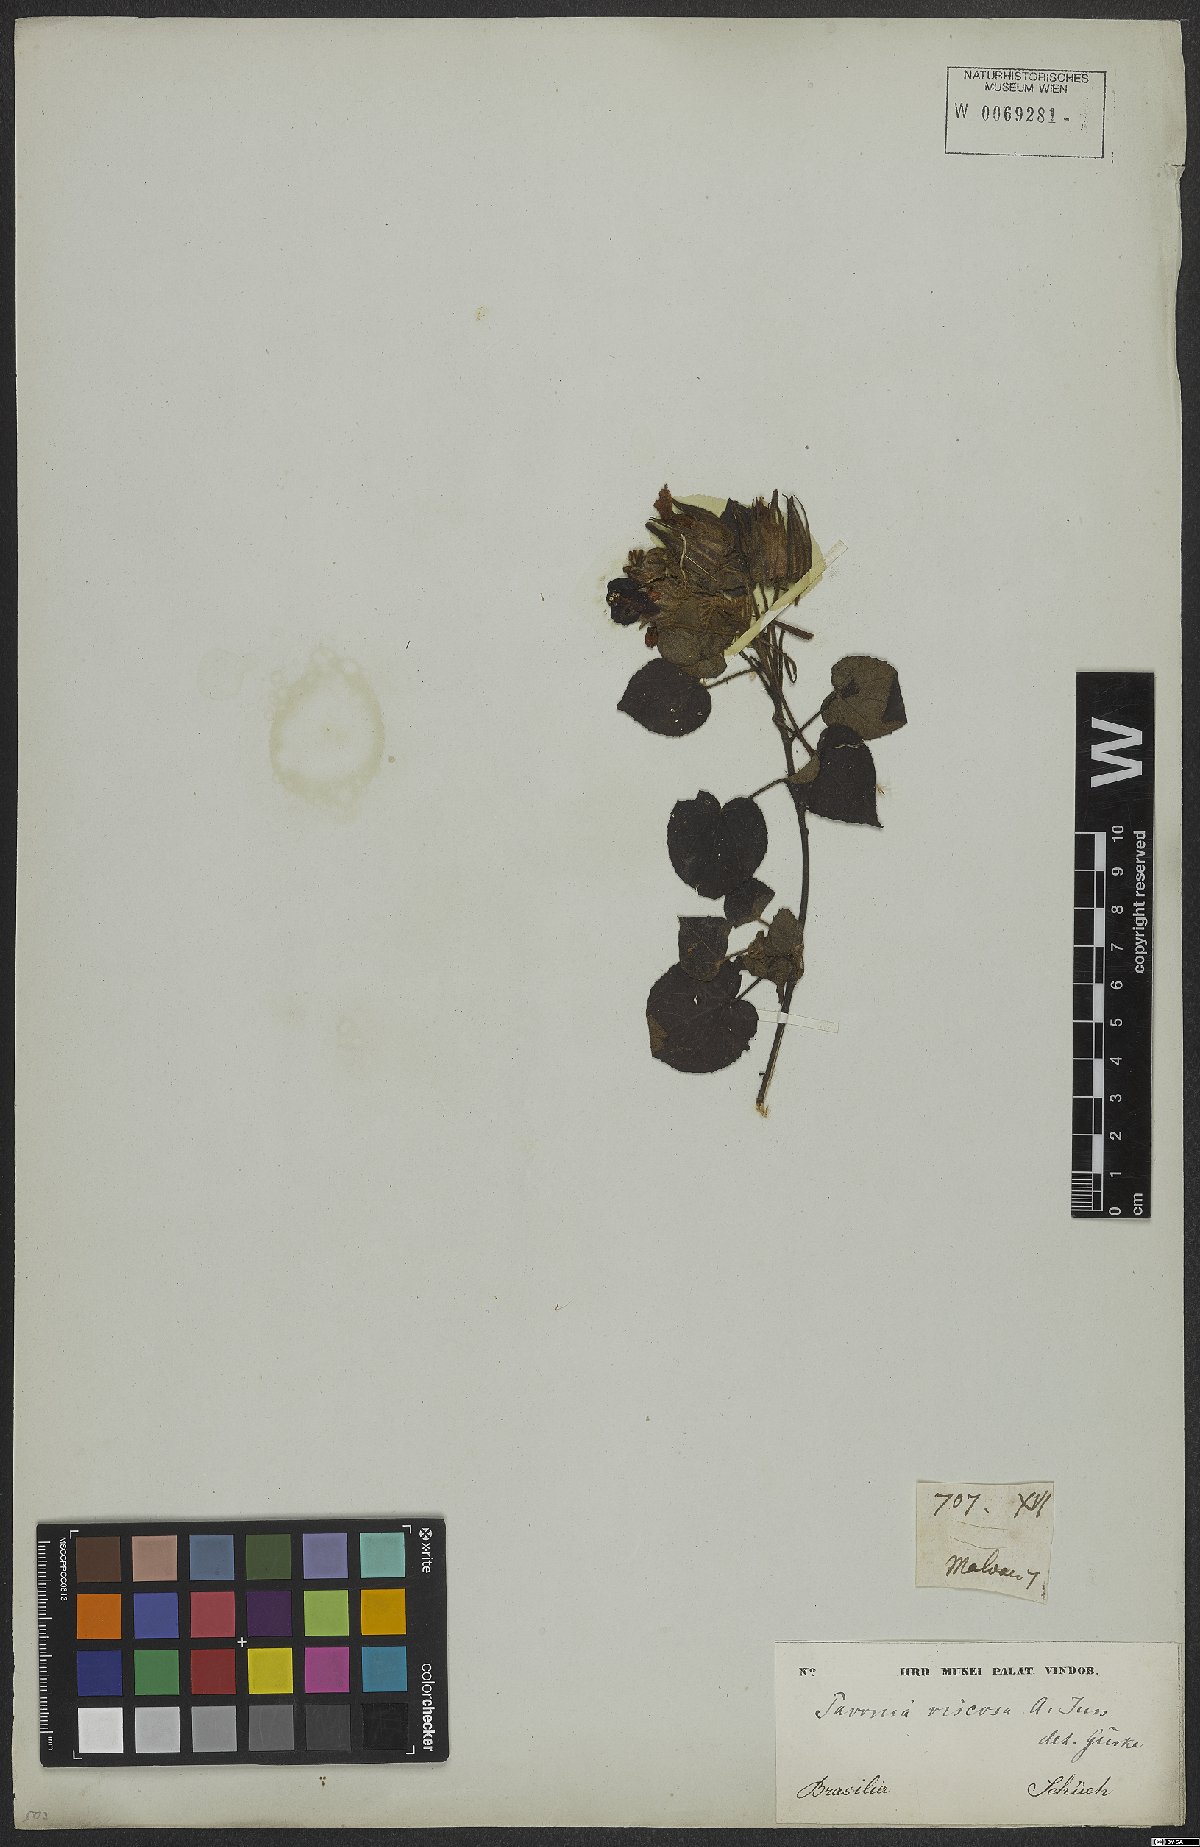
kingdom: Plantae
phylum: Tracheophyta
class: Magnoliopsida
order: Malvales
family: Malvaceae
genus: Pavonia
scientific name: Pavonia viscosa
